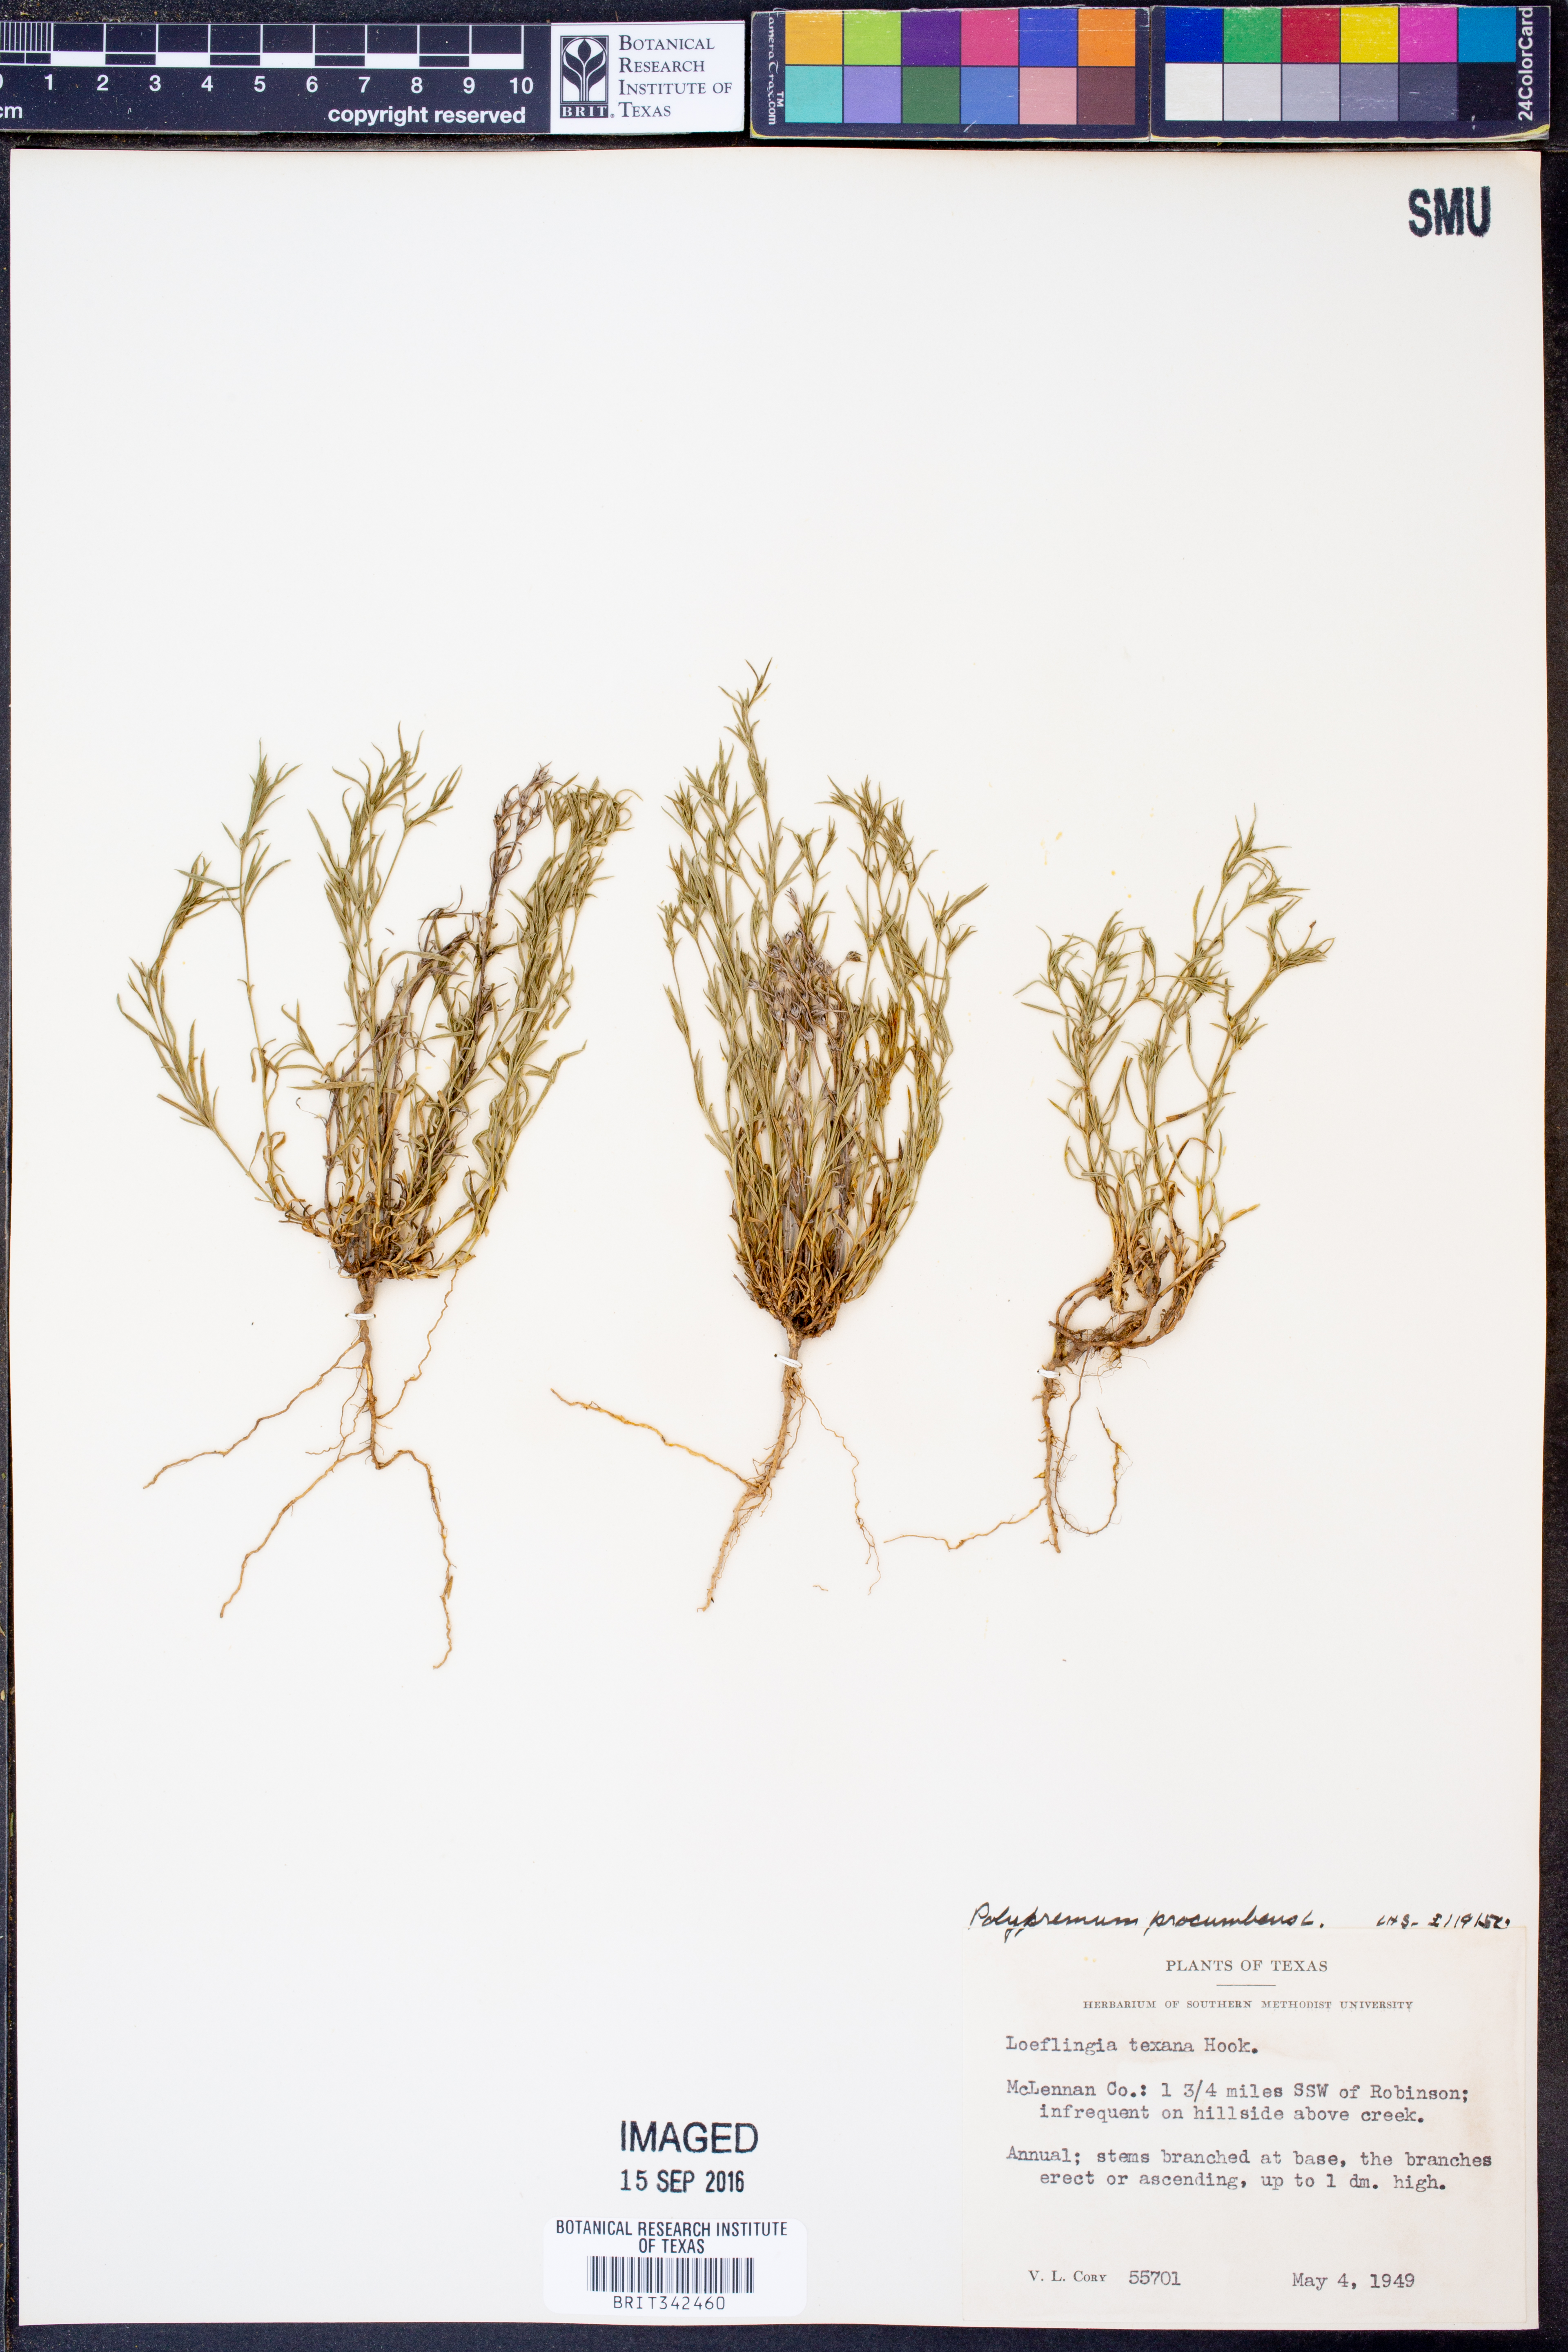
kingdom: Plantae
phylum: Tracheophyta
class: Magnoliopsida
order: Lamiales
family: Tetrachondraceae
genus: Polypremum
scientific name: Polypremum procumbens
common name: Juniper-leaf
